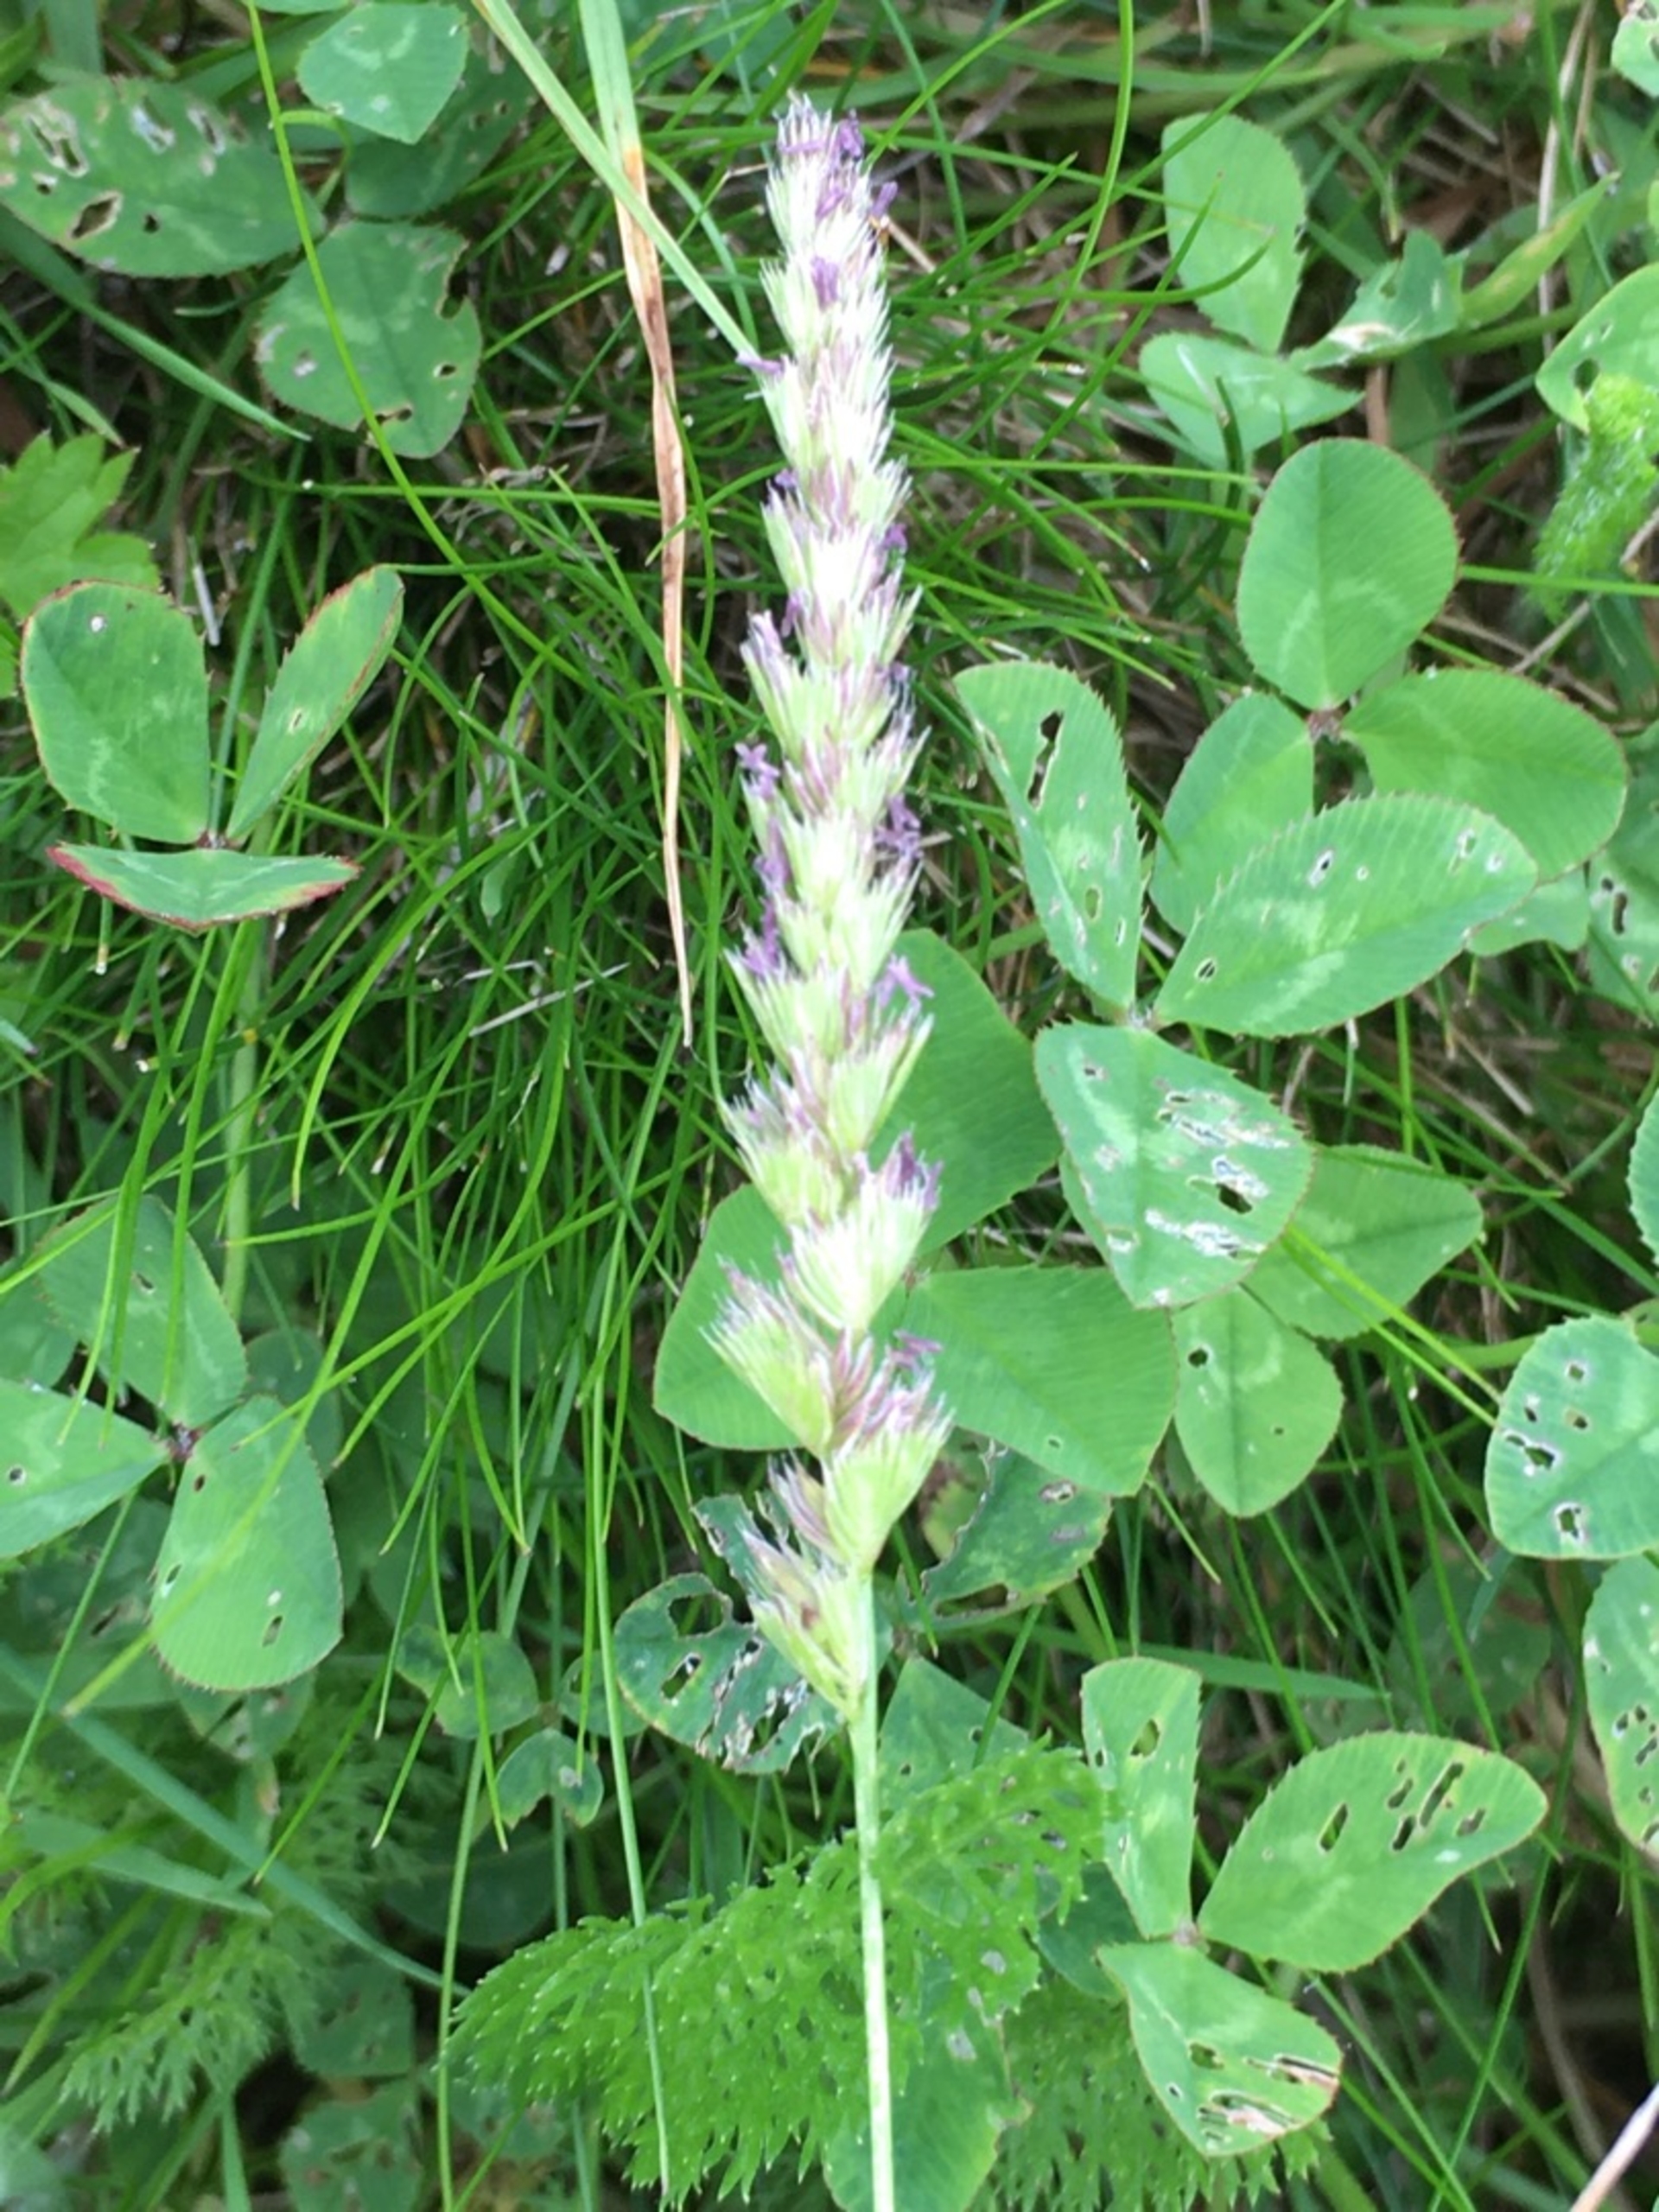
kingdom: Plantae
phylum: Tracheophyta
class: Liliopsida
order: Poales
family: Poaceae
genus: Cynosurus
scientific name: Cynosurus cristatus
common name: Kamgræs
